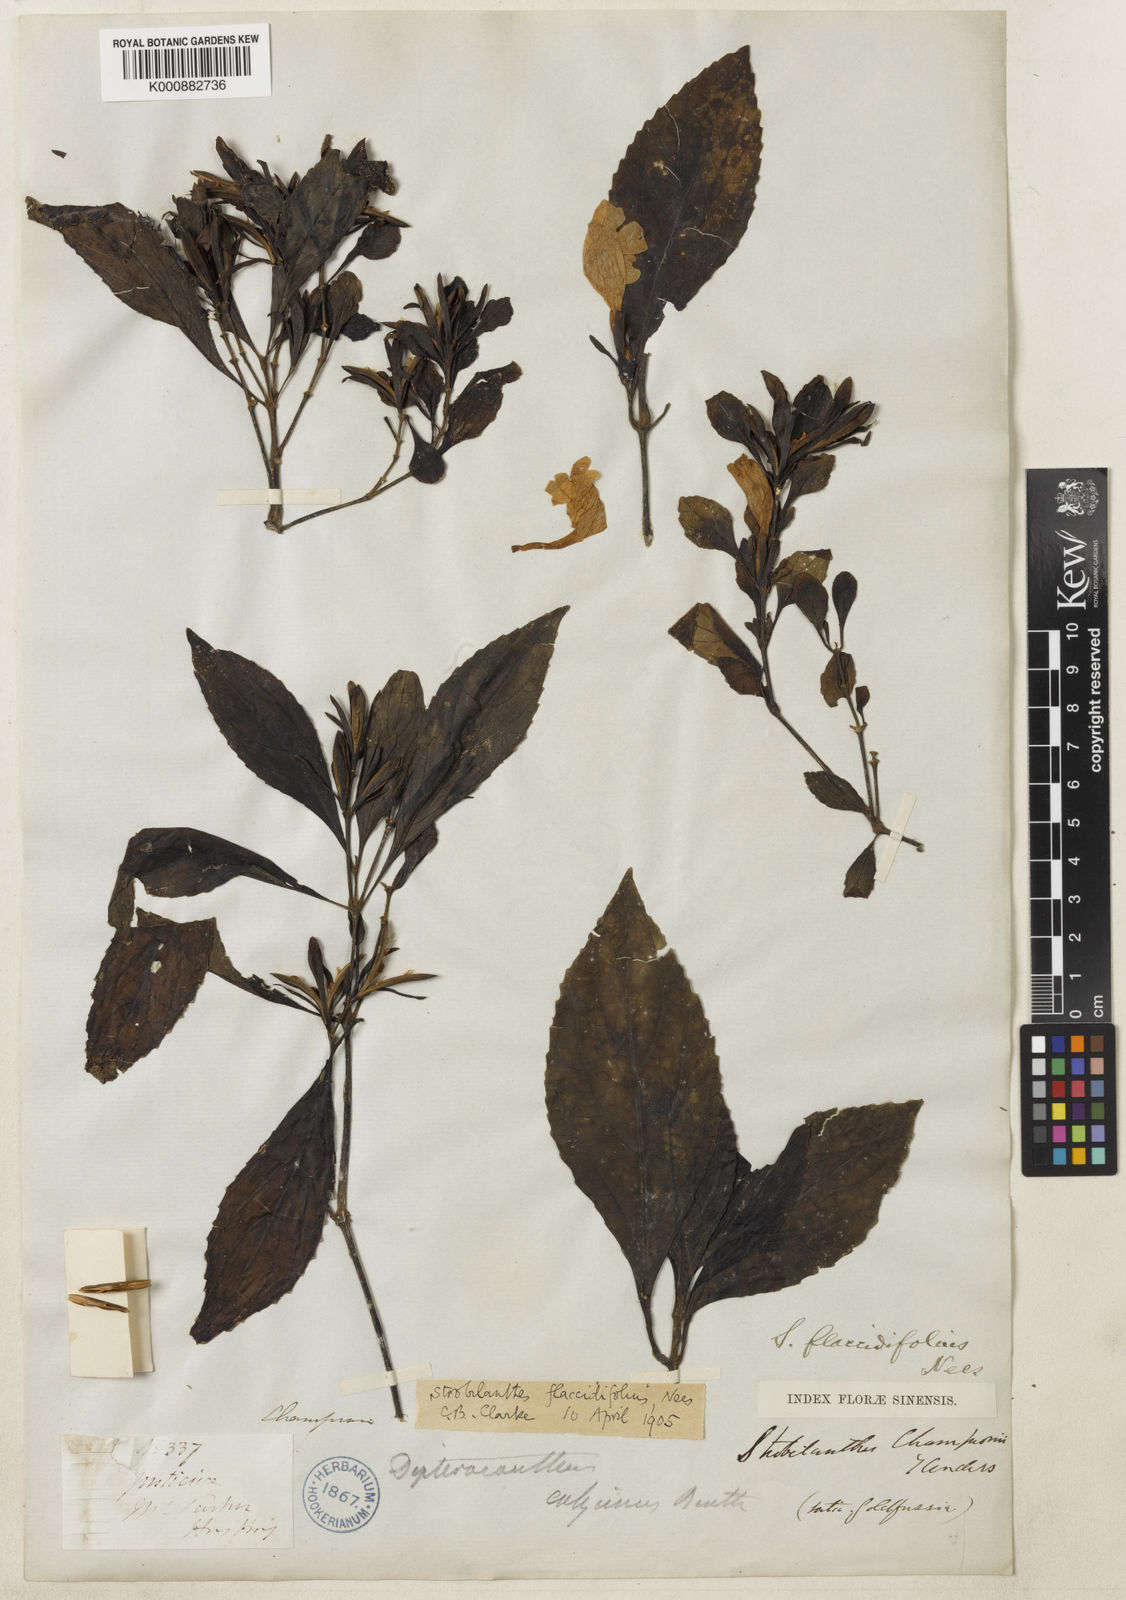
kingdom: Plantae
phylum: Tracheophyta
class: Magnoliopsida
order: Lamiales
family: Acanthaceae
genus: Strobilanthes
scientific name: Strobilanthes cusia
